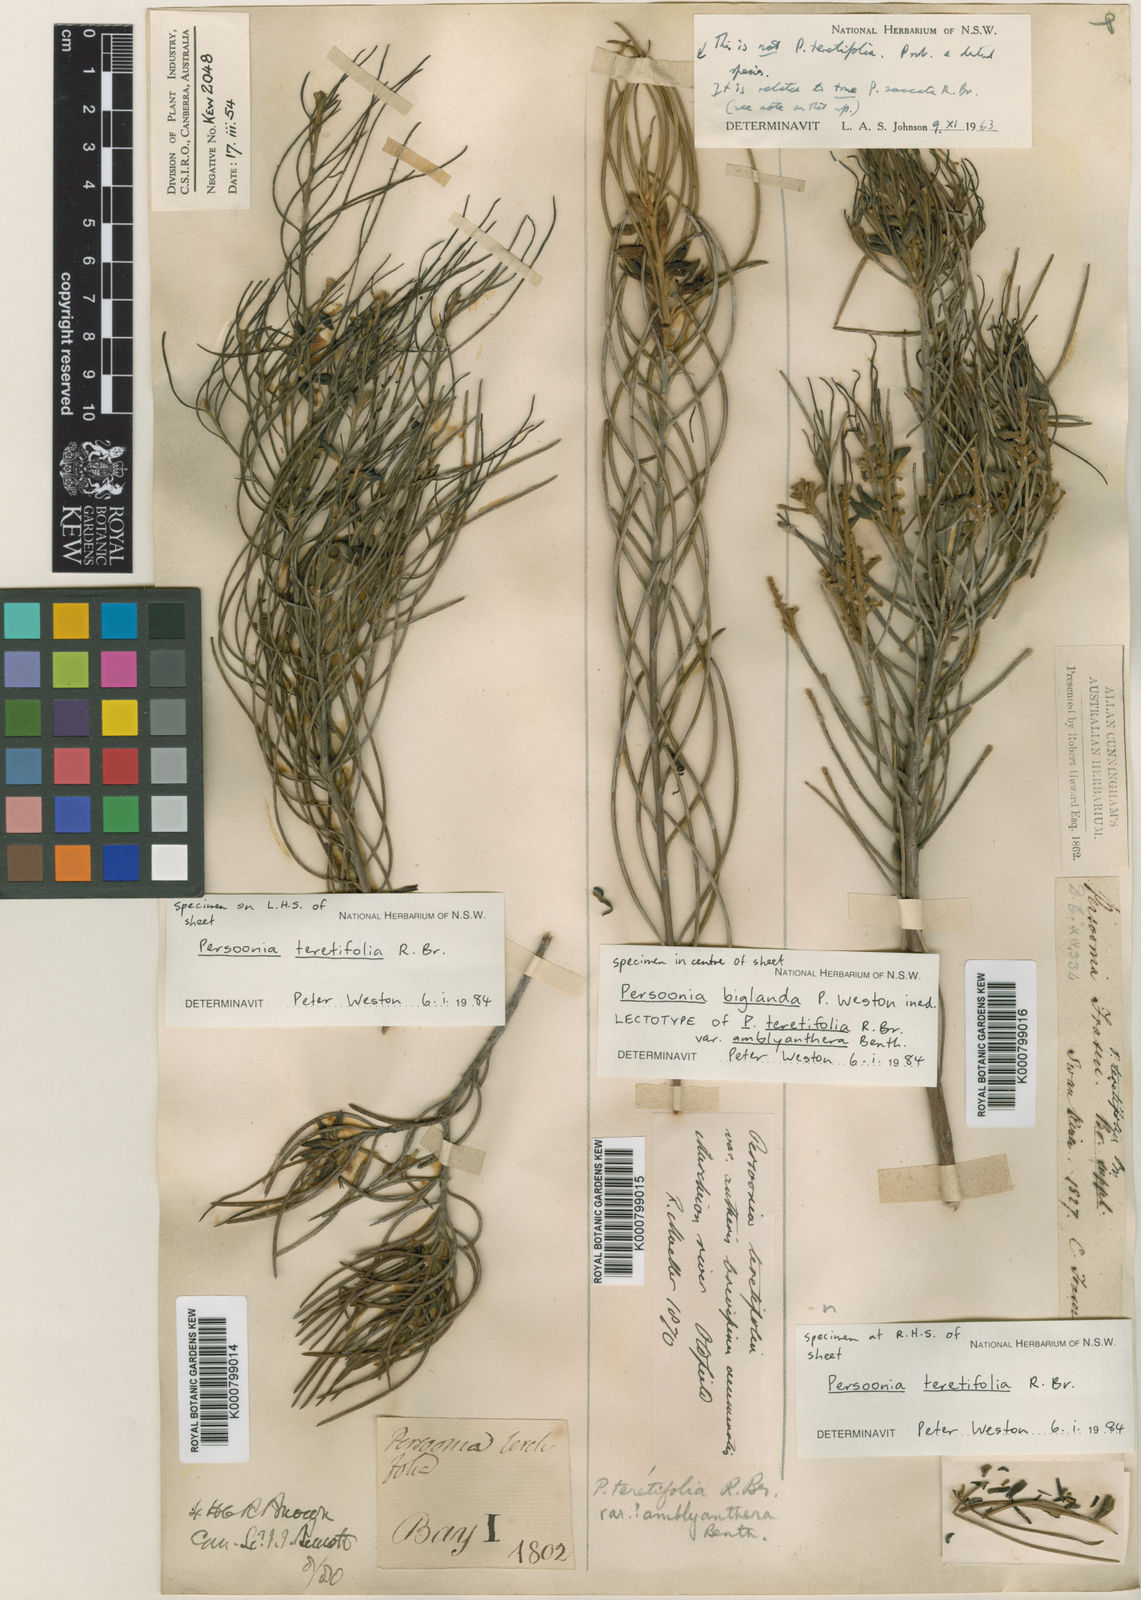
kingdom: Plantae
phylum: Tracheophyta
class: Magnoliopsida
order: Proteales
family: Proteaceae
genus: Persoonia
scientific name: Persoonia biglandulosa
